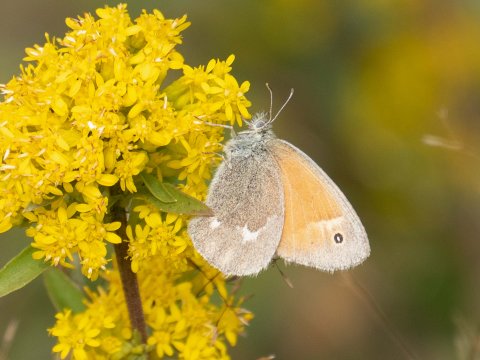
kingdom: Animalia
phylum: Arthropoda
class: Insecta
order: Lepidoptera
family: Nymphalidae
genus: Coenonympha
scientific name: Coenonympha california
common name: California Ringlet
